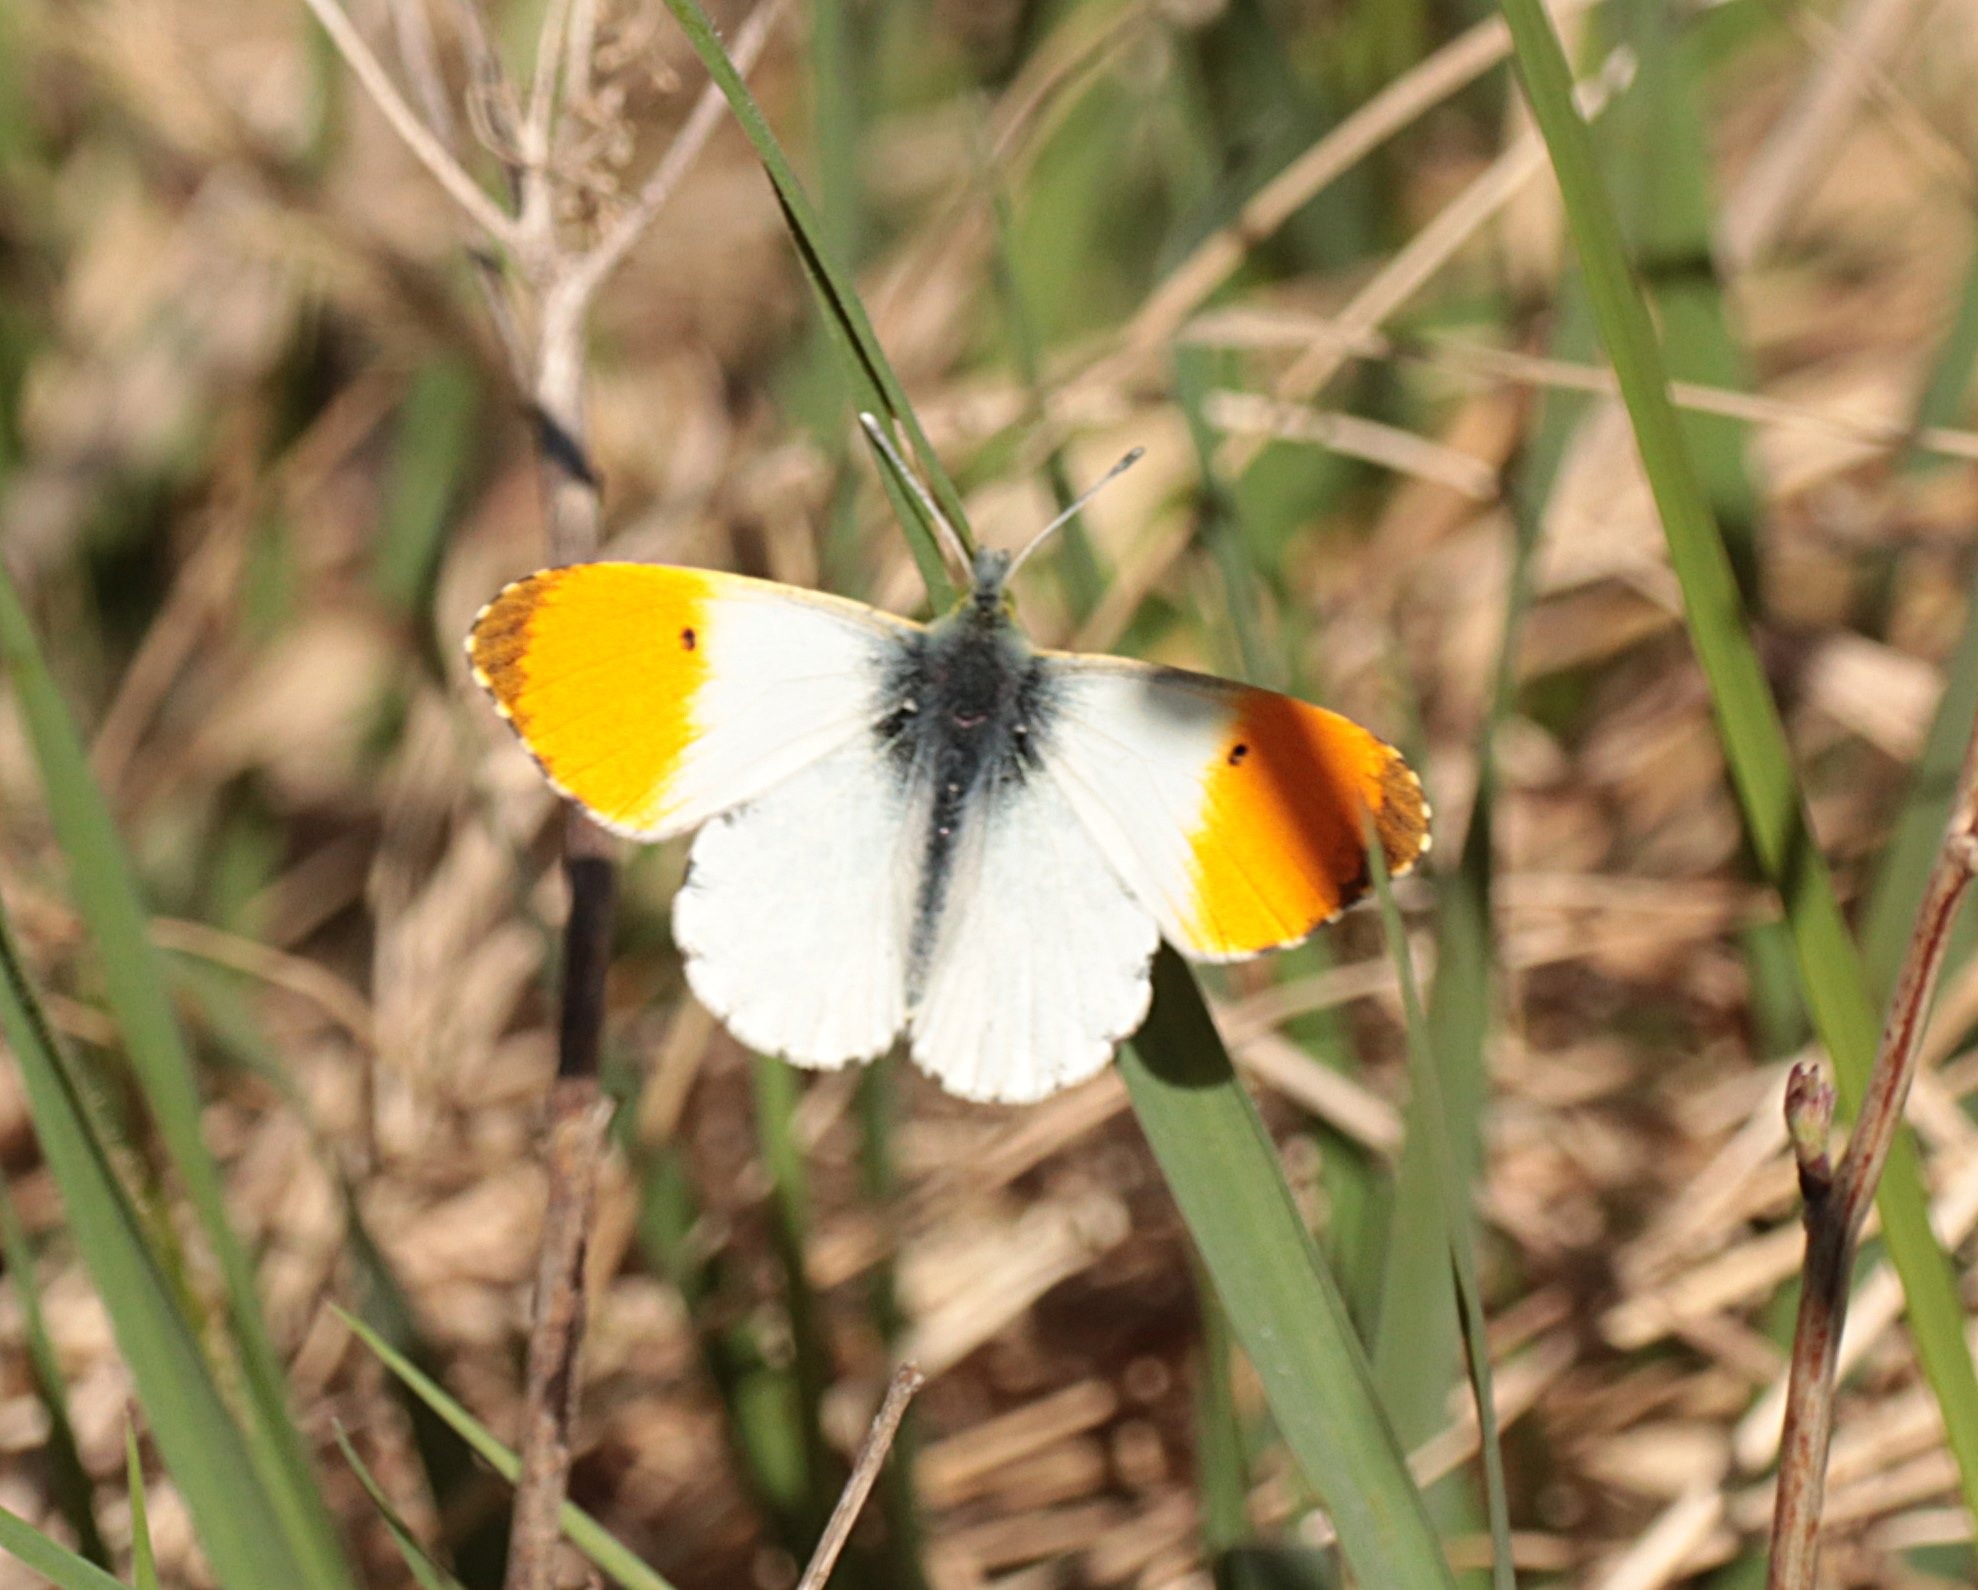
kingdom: Animalia
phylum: Arthropoda
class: Insecta
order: Lepidoptera
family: Pieridae
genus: Anthocharis
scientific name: Anthocharis cardamines
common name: Aurora
